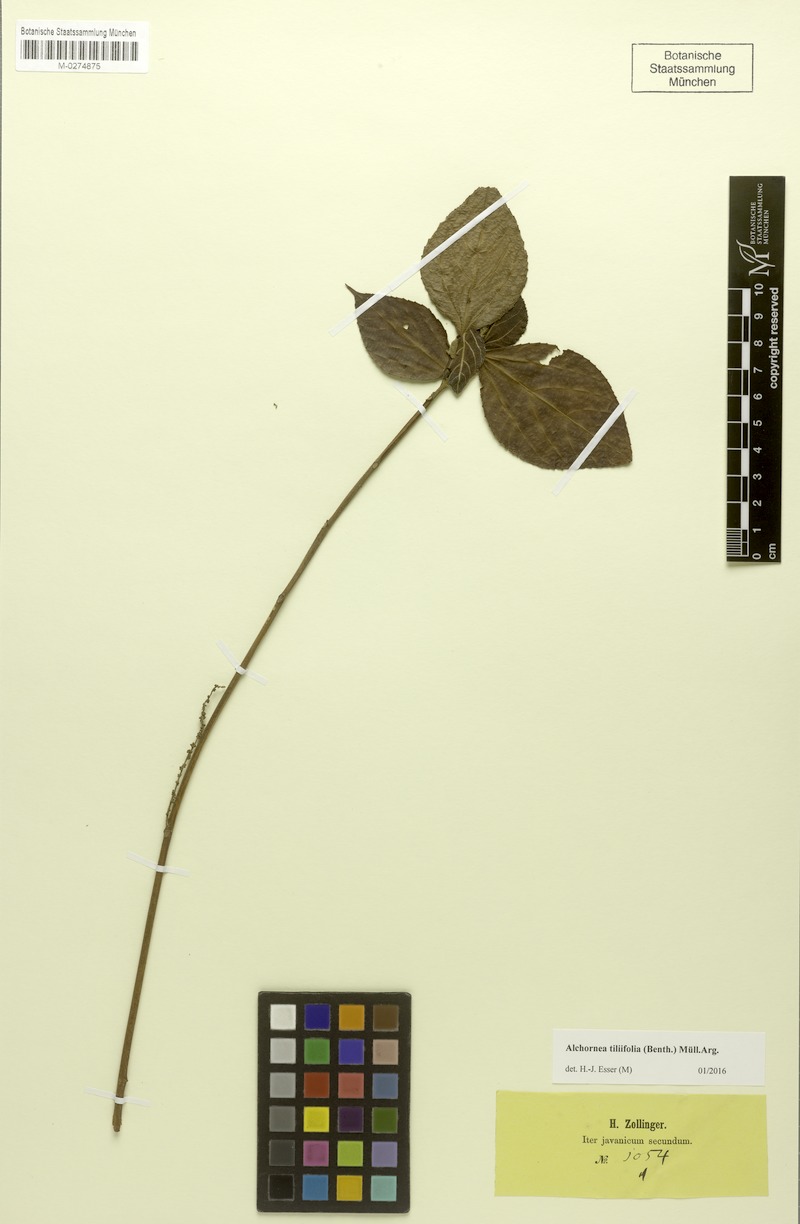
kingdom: Plantae
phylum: Tracheophyta
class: Magnoliopsida
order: Malpighiales
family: Euphorbiaceae
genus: Alchornea
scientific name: Alchornea tiliifolia
